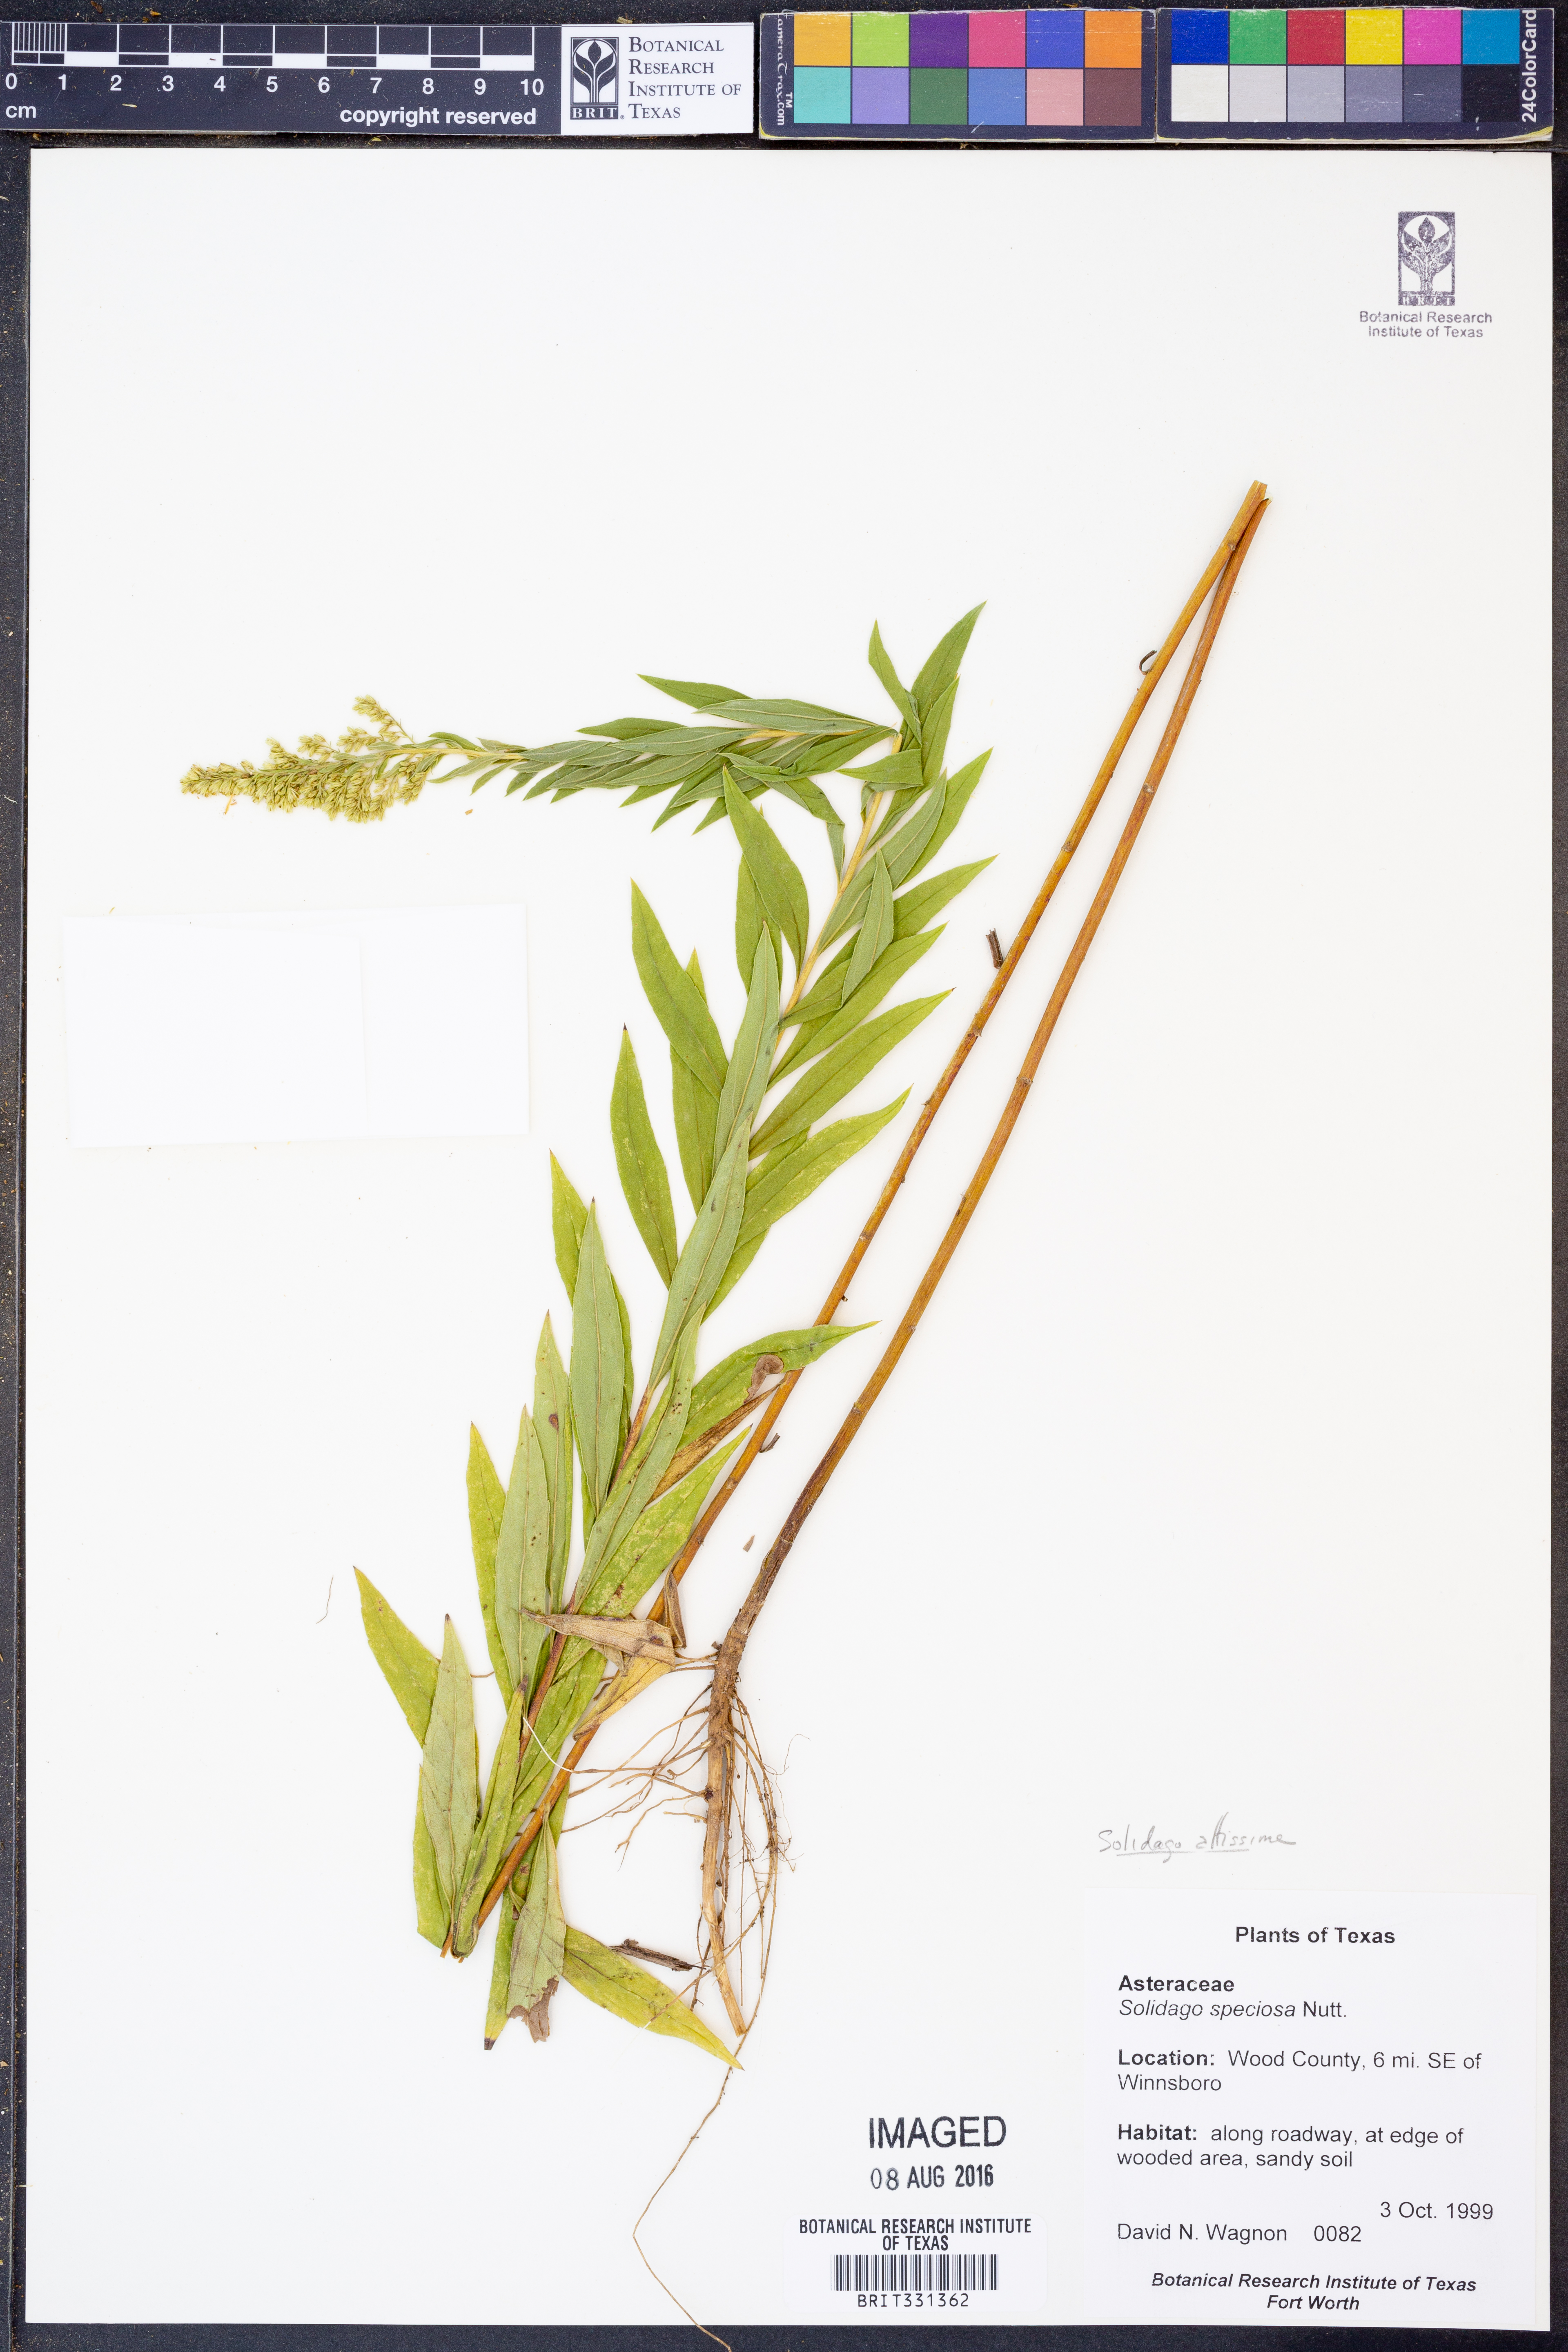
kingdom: Plantae
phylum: Tracheophyta
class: Magnoliopsida
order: Asterales
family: Asteraceae
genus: Solidago
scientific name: Solidago altissima
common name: Late goldenrod
